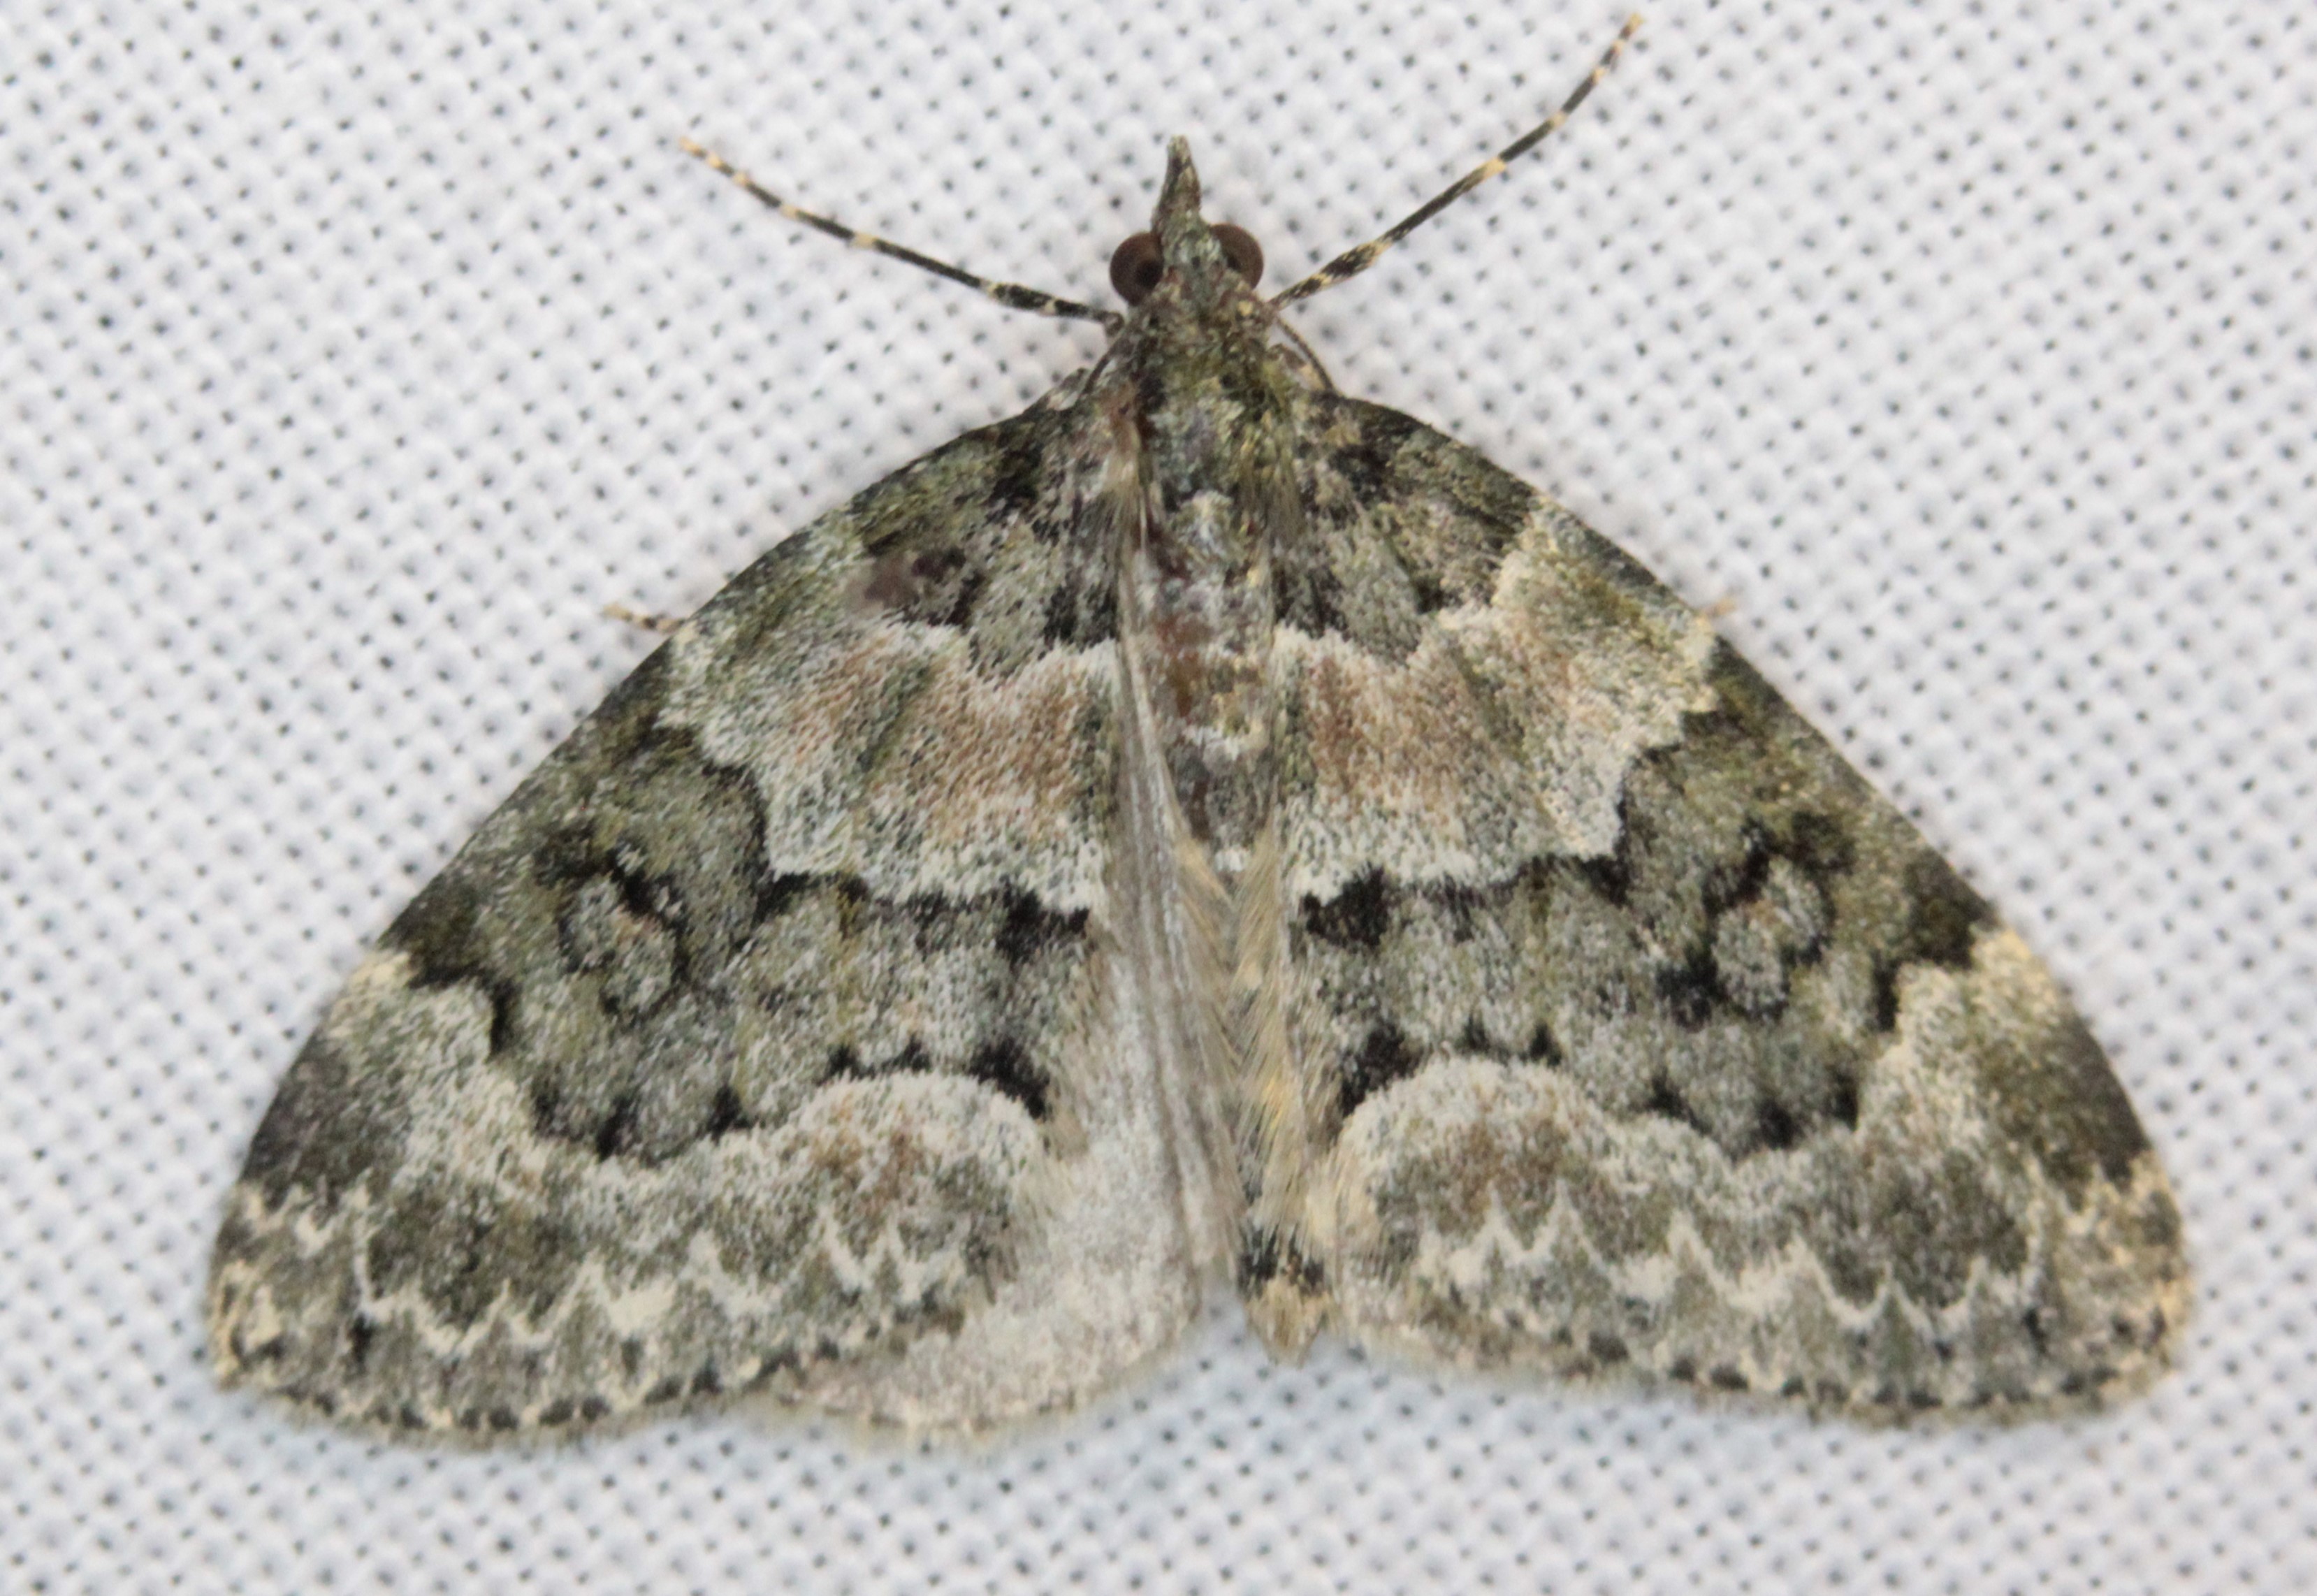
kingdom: Animalia
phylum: Arthropoda
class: Insecta
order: Lepidoptera
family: Geometridae
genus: Chloroclysta
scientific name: Chloroclysta miata
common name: Autumn green carpet
